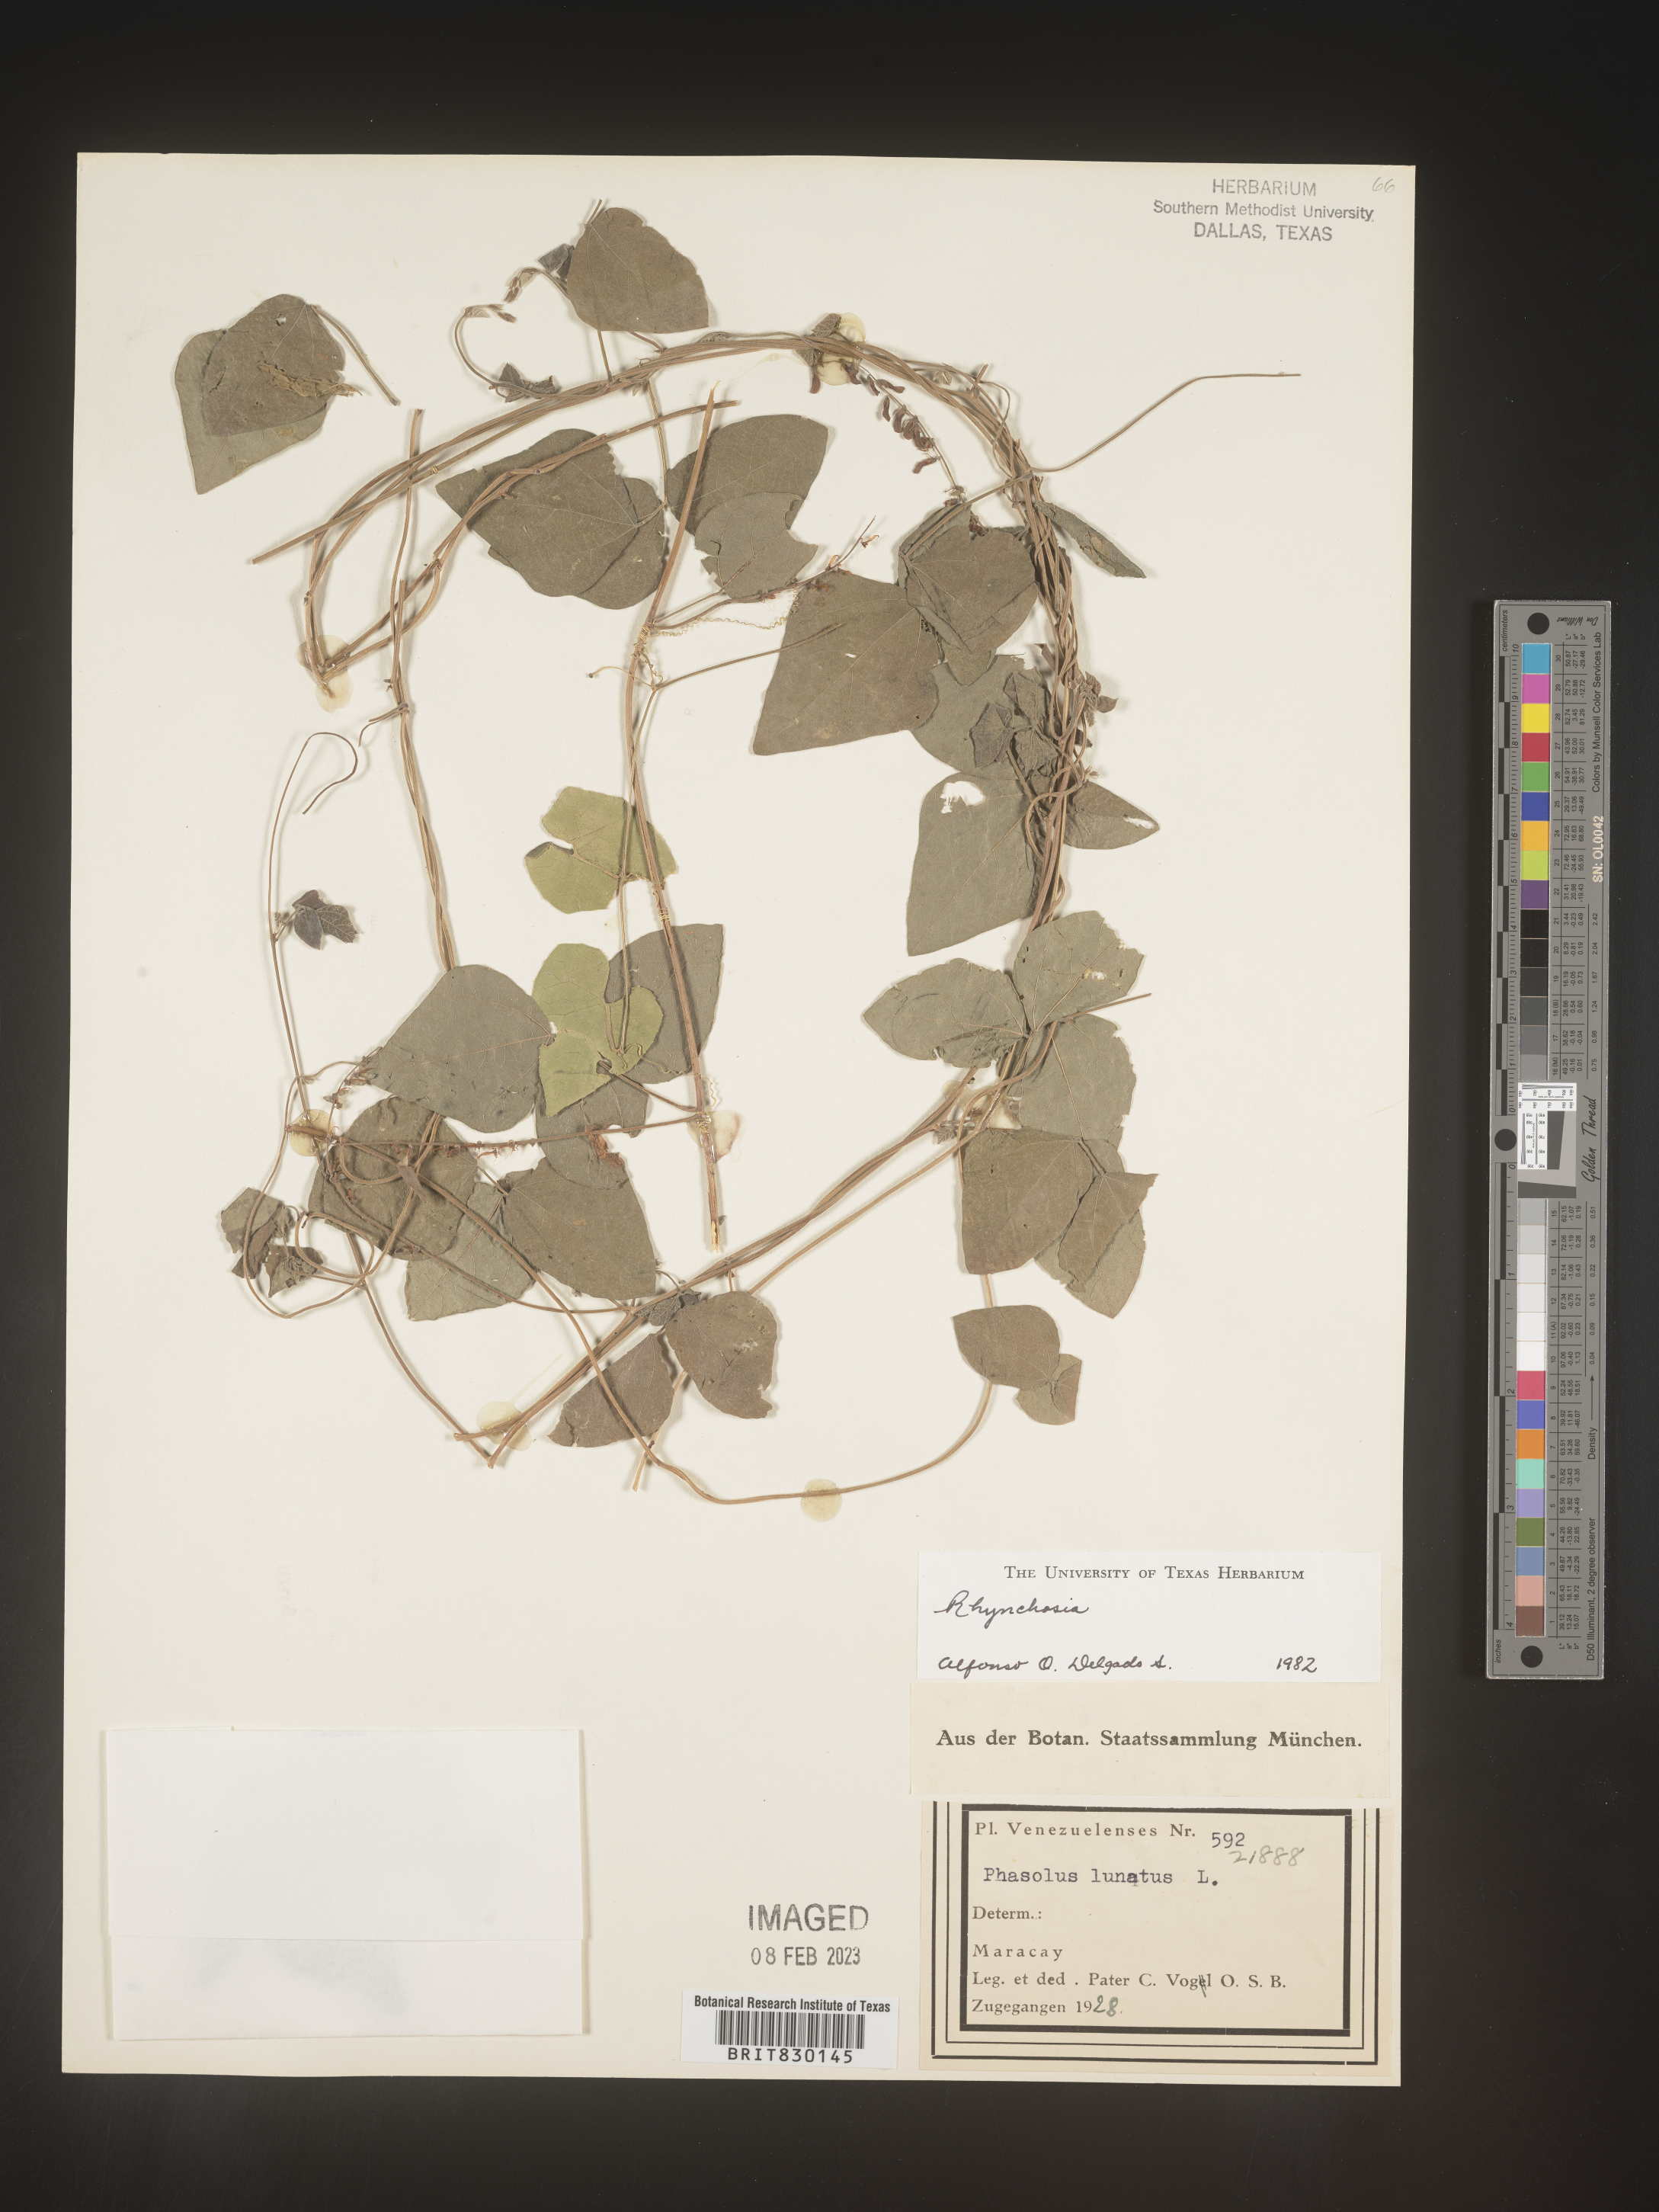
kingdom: Plantae
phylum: Tracheophyta
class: Magnoliopsida
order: Fabales
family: Fabaceae
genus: Rhynchosia
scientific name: Rhynchosia
